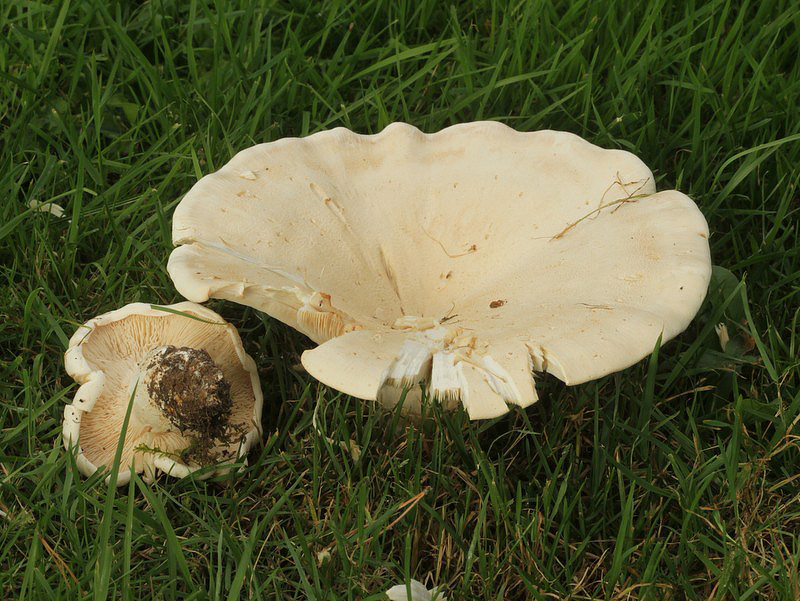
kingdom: Fungi
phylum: Basidiomycota
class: Agaricomycetes
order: Agaricales
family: Tricholomataceae
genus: Aspropaxillus
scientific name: Aspropaxillus giganteus
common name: kæmpe-tragtridderhat
